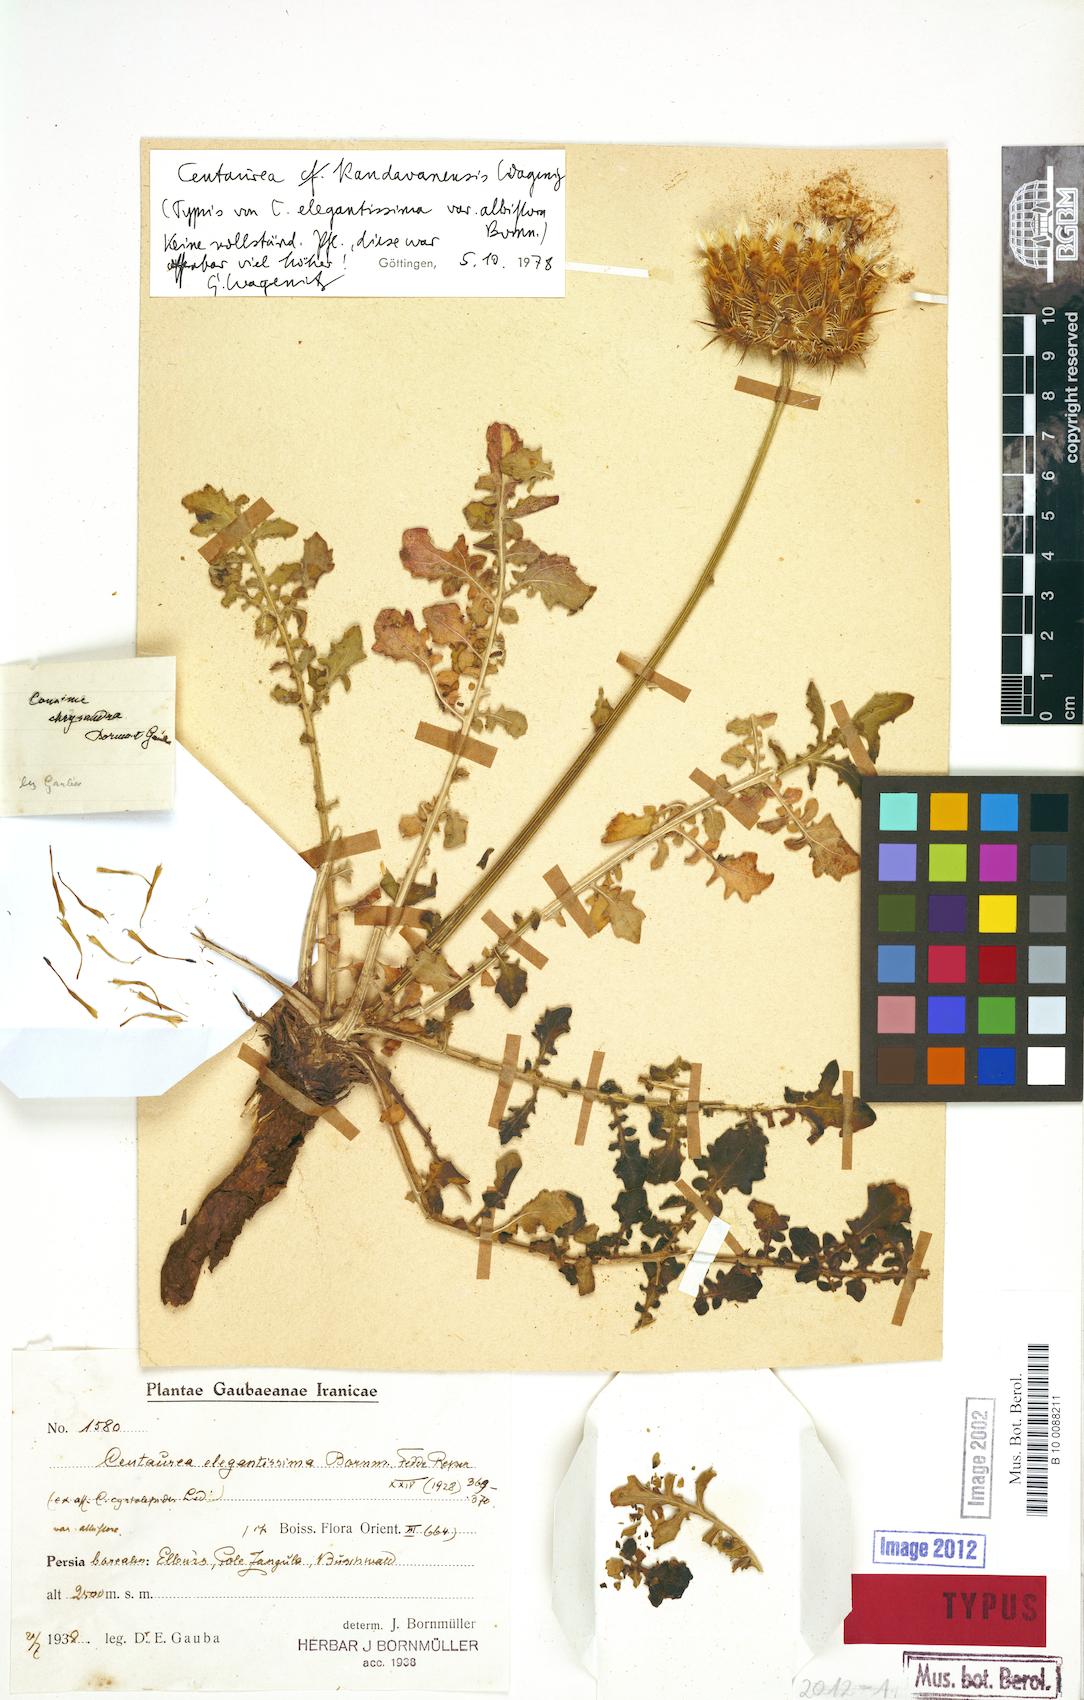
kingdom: Plantae
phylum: Tracheophyta
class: Magnoliopsida
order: Asterales
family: Asteraceae
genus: Centaurea
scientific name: Centaurea kandavanensis
